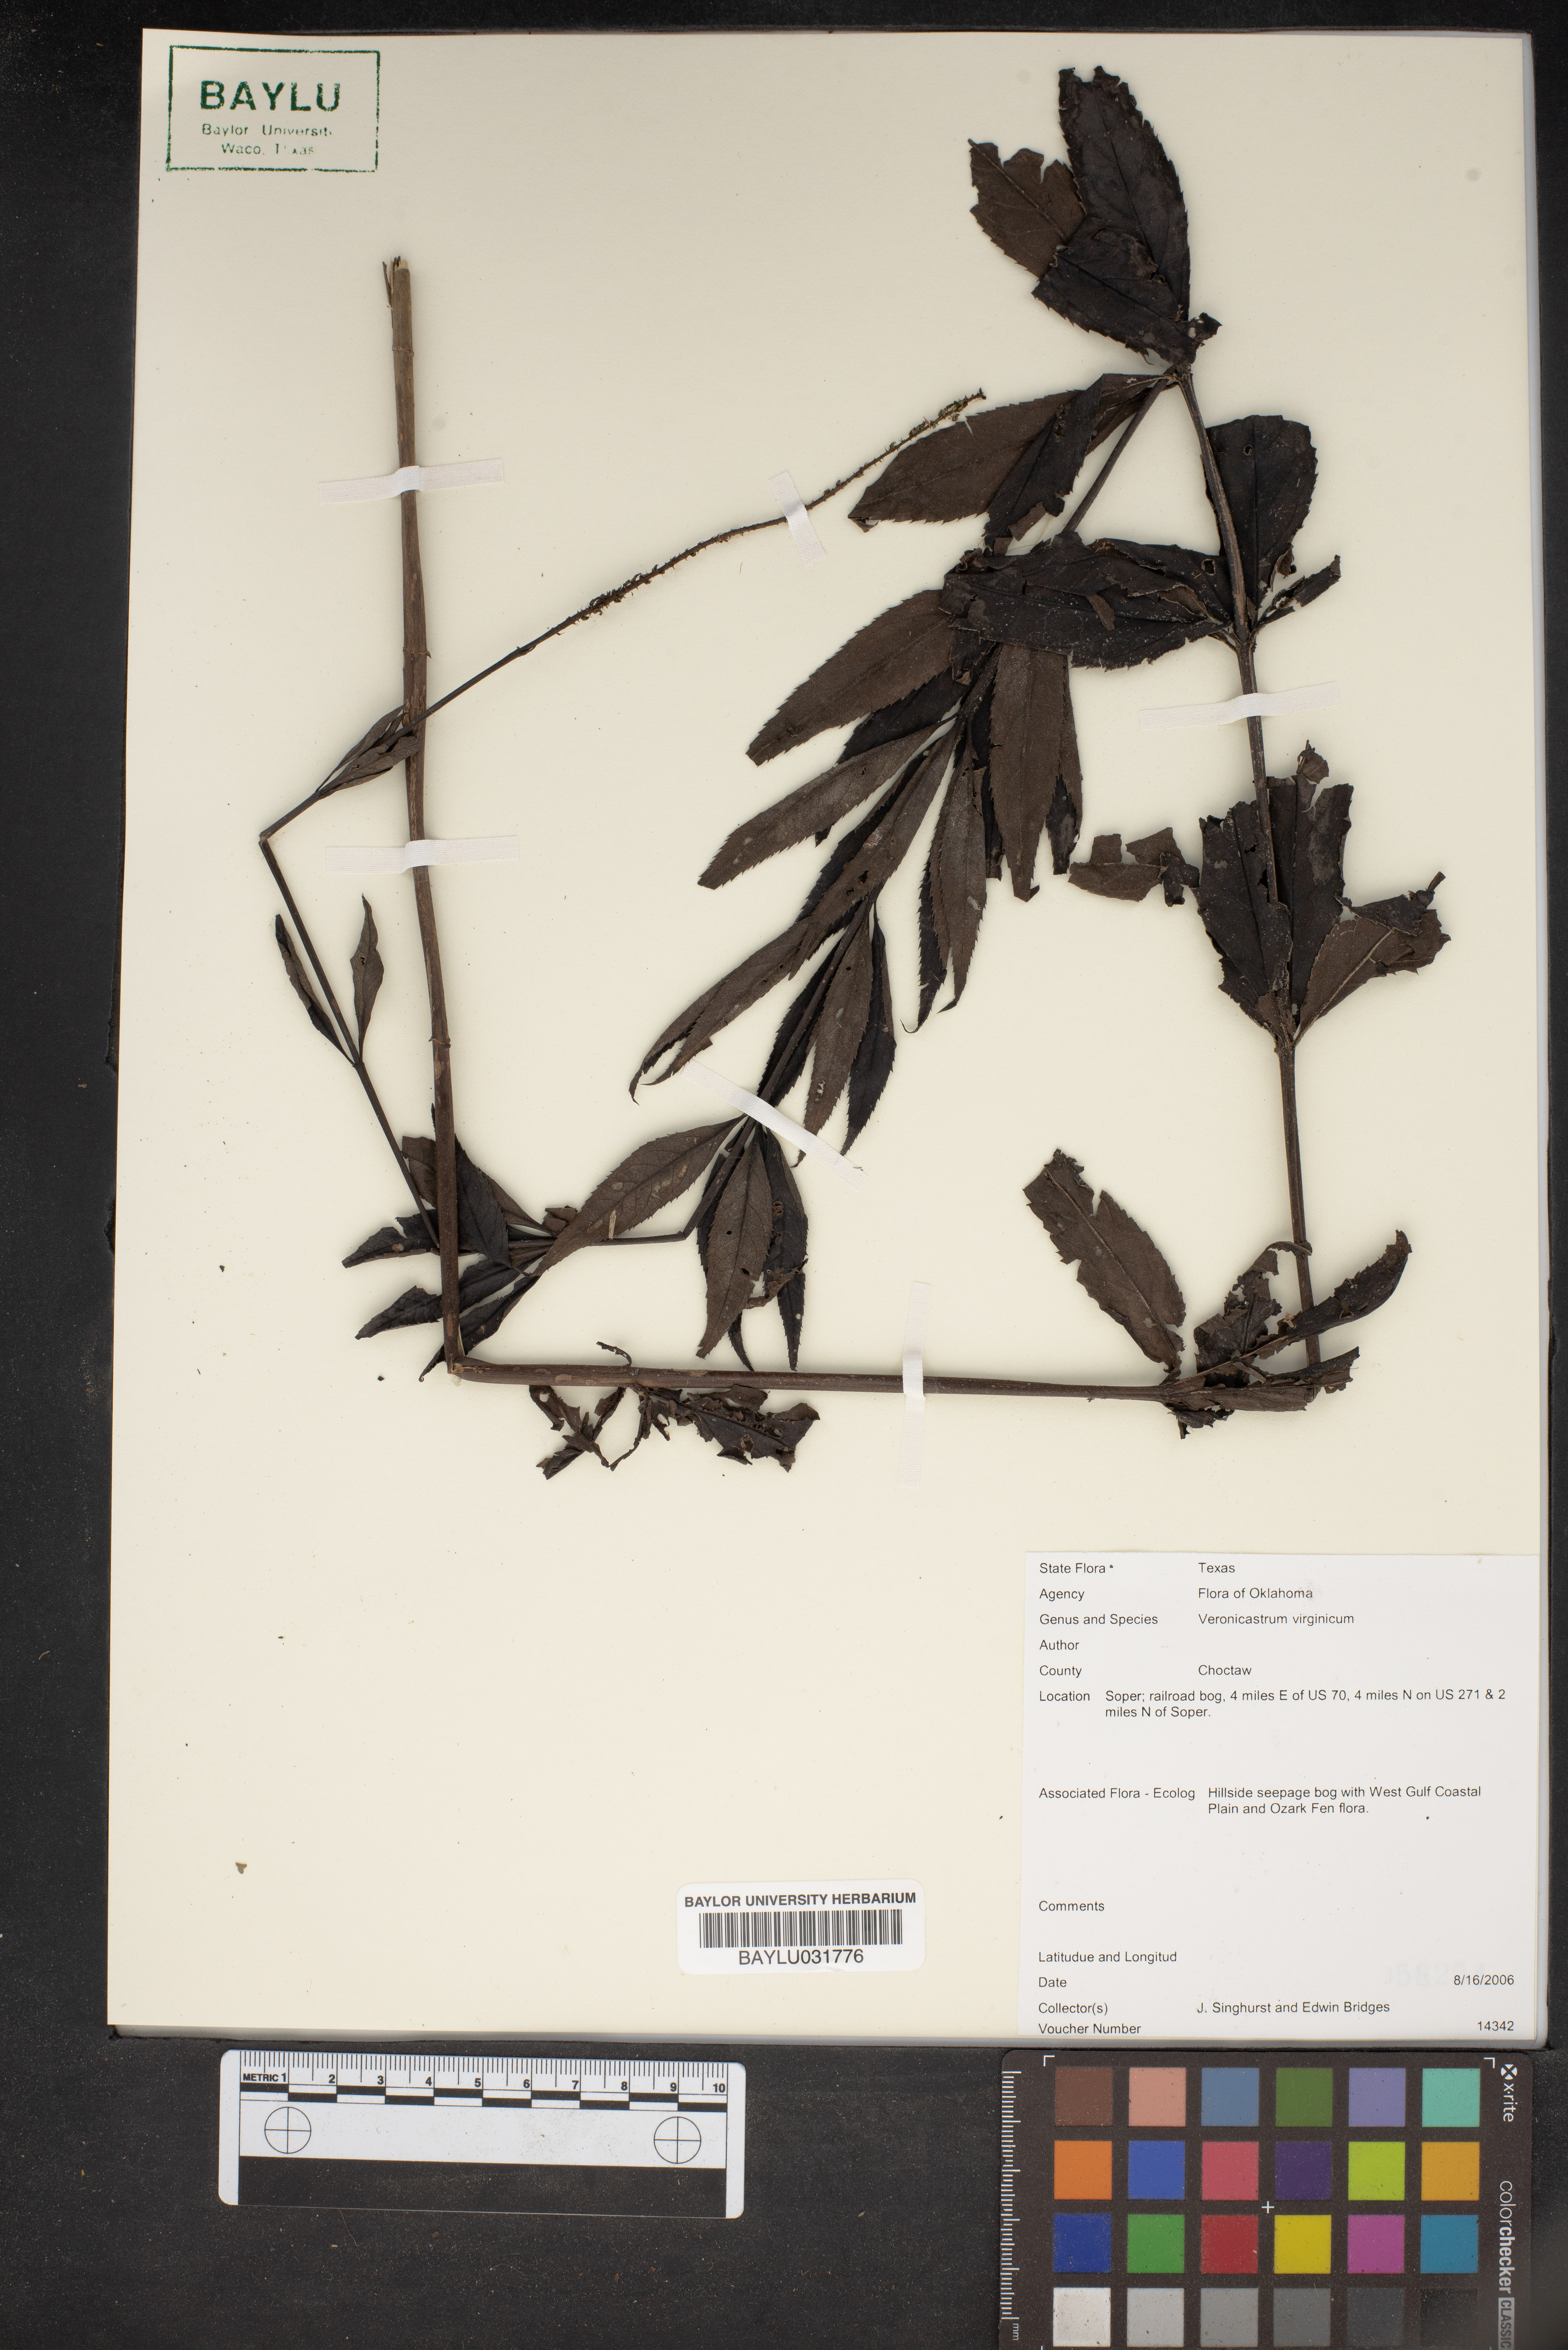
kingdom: Plantae
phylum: Tracheophyta
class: Magnoliopsida
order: Lamiales
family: Plantaginaceae
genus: Veronicastrum
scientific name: Veronicastrum virginicum
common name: Blackroot
